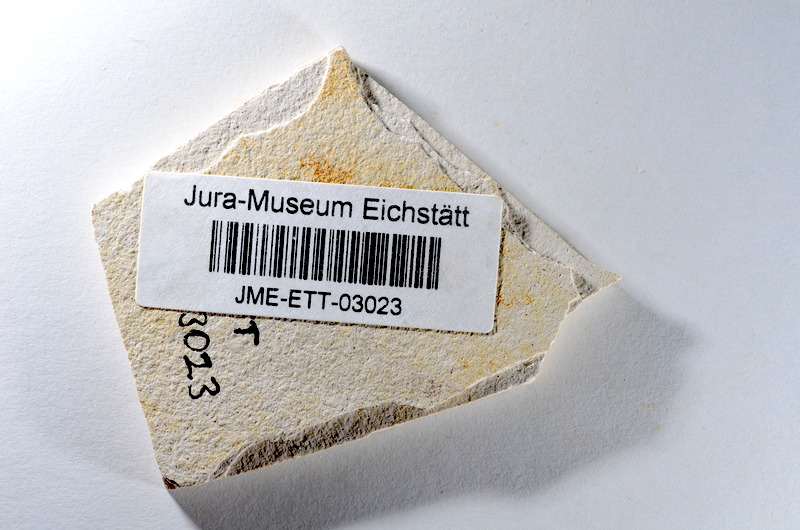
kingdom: Animalia
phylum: Chordata
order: Salmoniformes
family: Orthogonikleithridae
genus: Orthogonikleithrus
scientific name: Orthogonikleithrus hoelli
